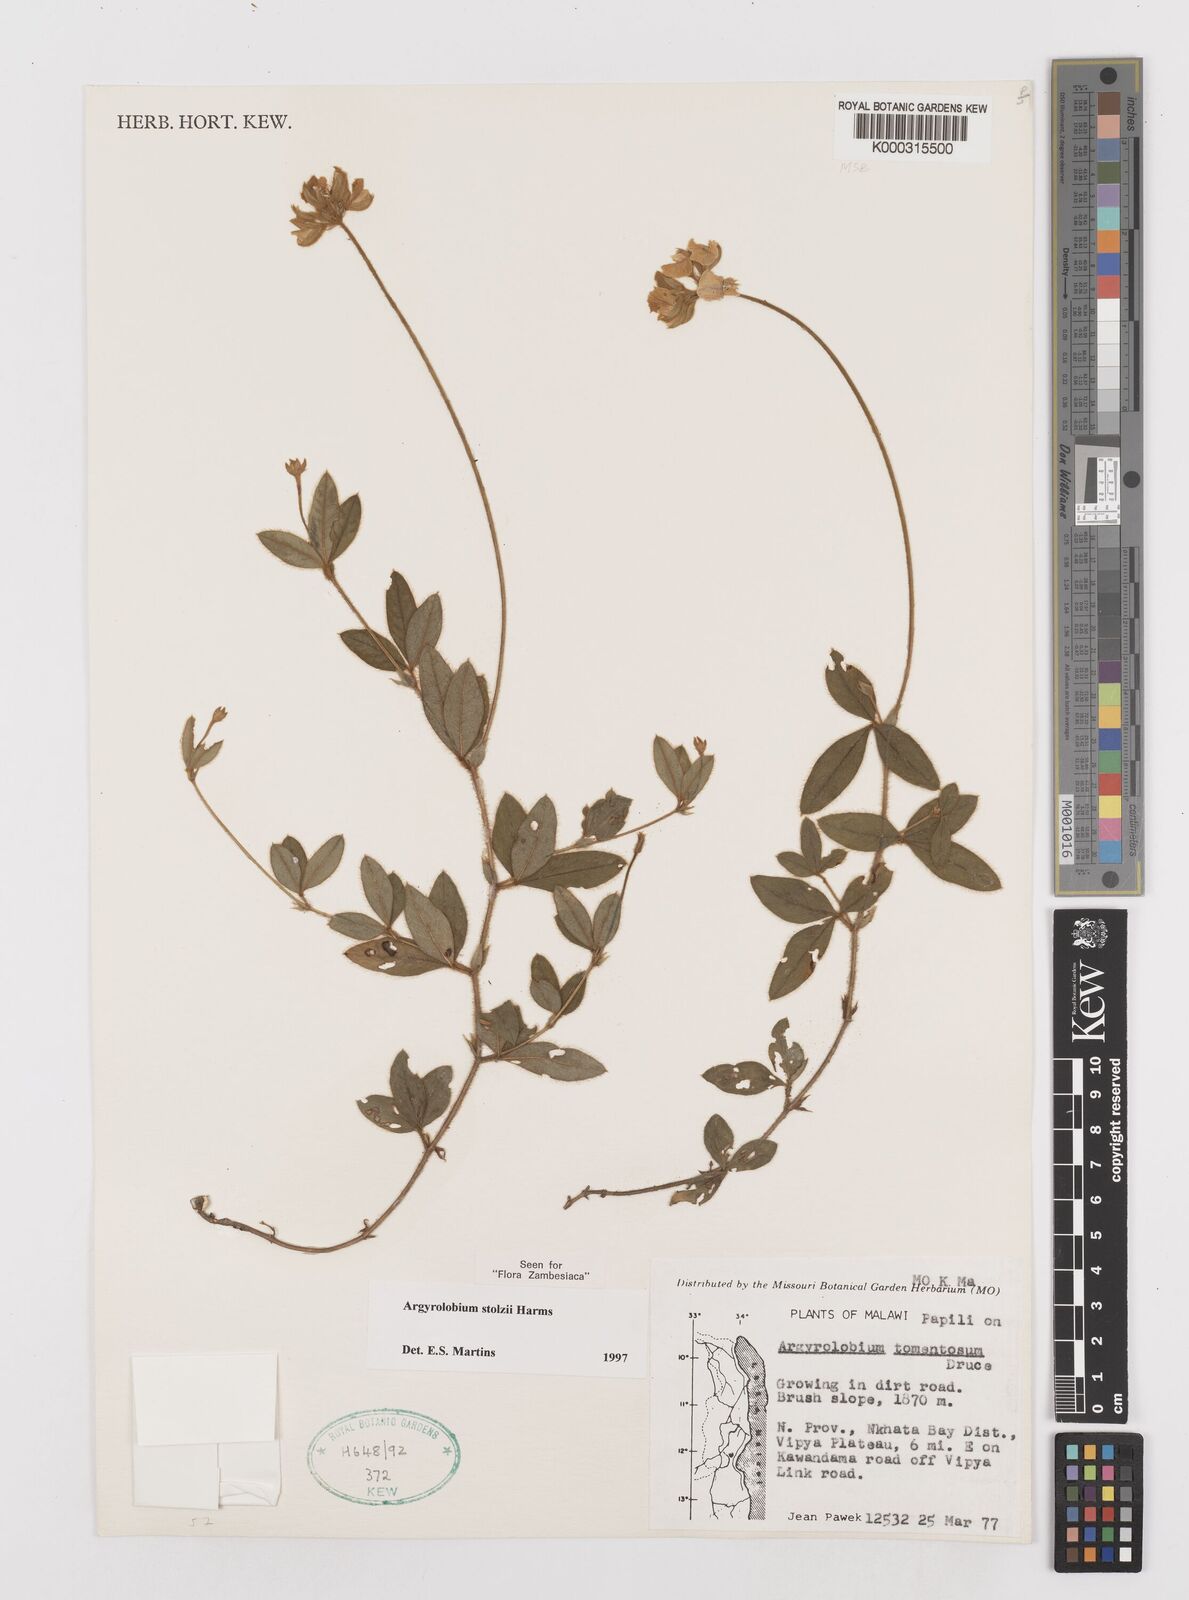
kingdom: Plantae
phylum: Tracheophyta
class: Magnoliopsida
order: Fabales
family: Fabaceae
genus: Argyrolobium
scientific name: Argyrolobium stolzii
